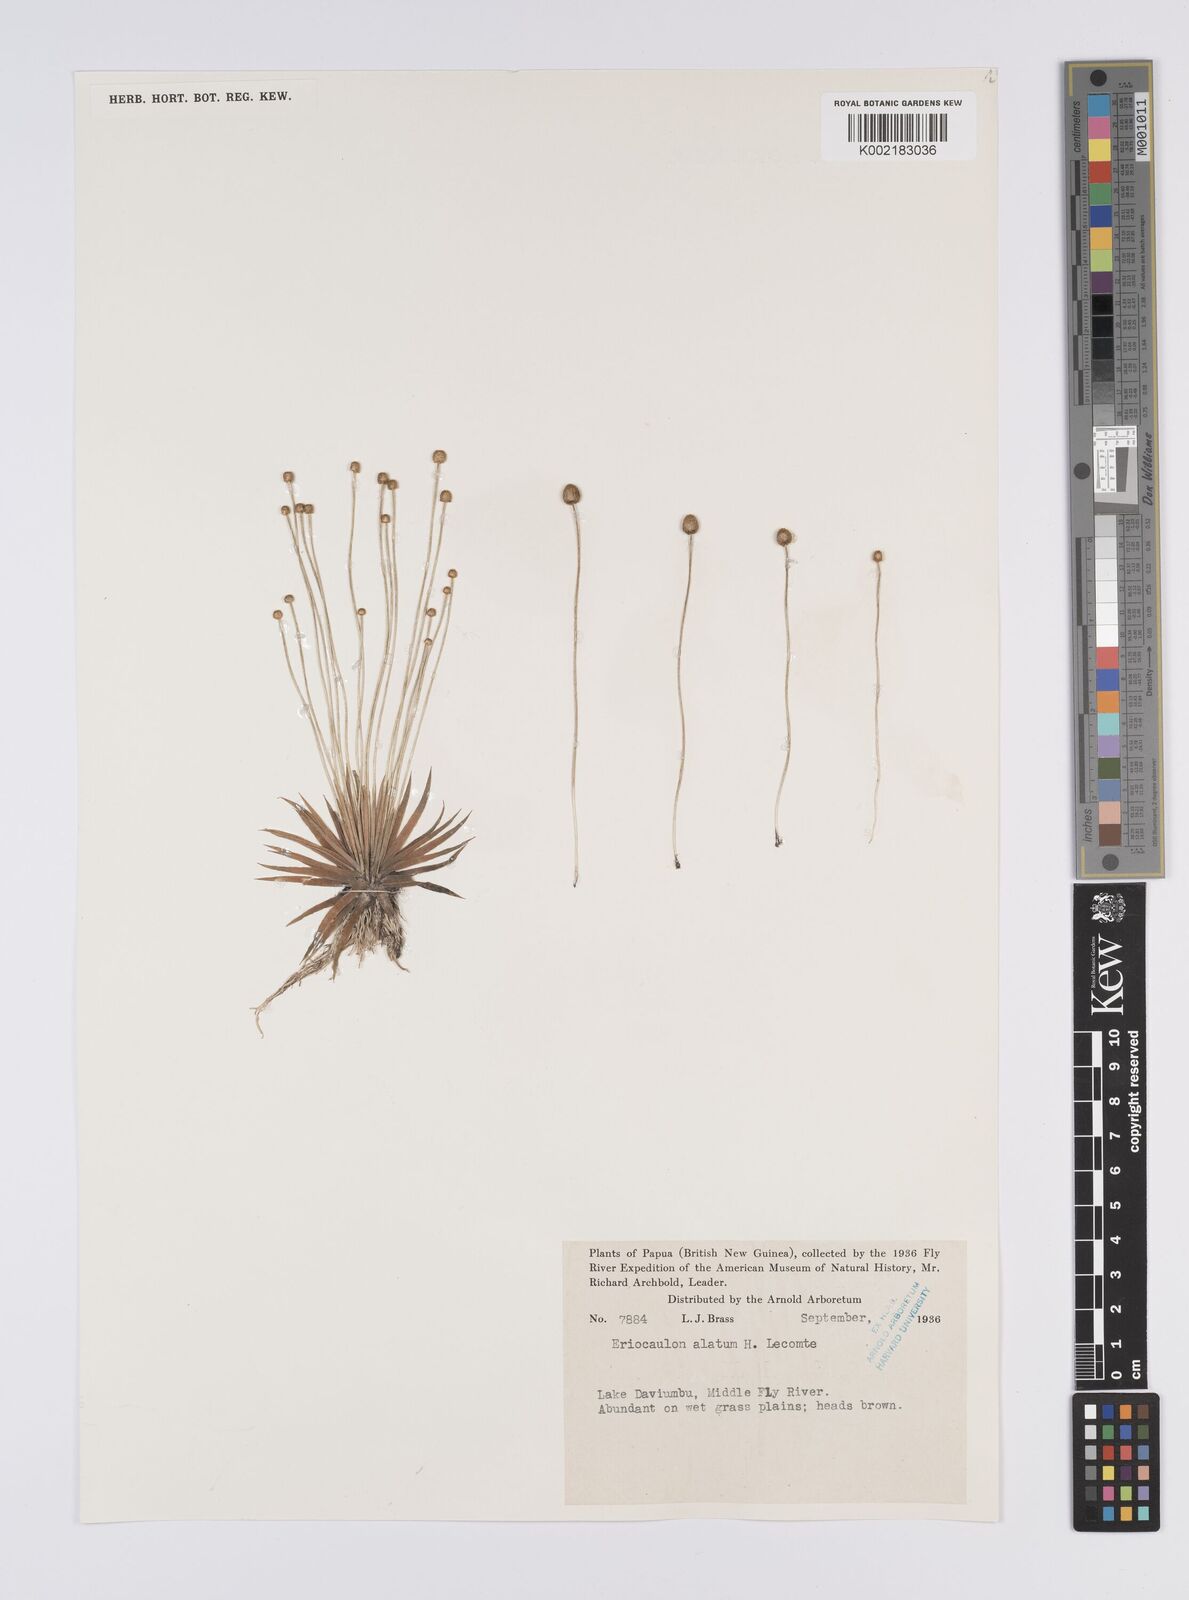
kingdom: Plantae
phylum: Tracheophyta
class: Liliopsida
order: Poales
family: Eriocaulaceae
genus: Eriocaulon
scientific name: Eriocaulon zollingerianum
